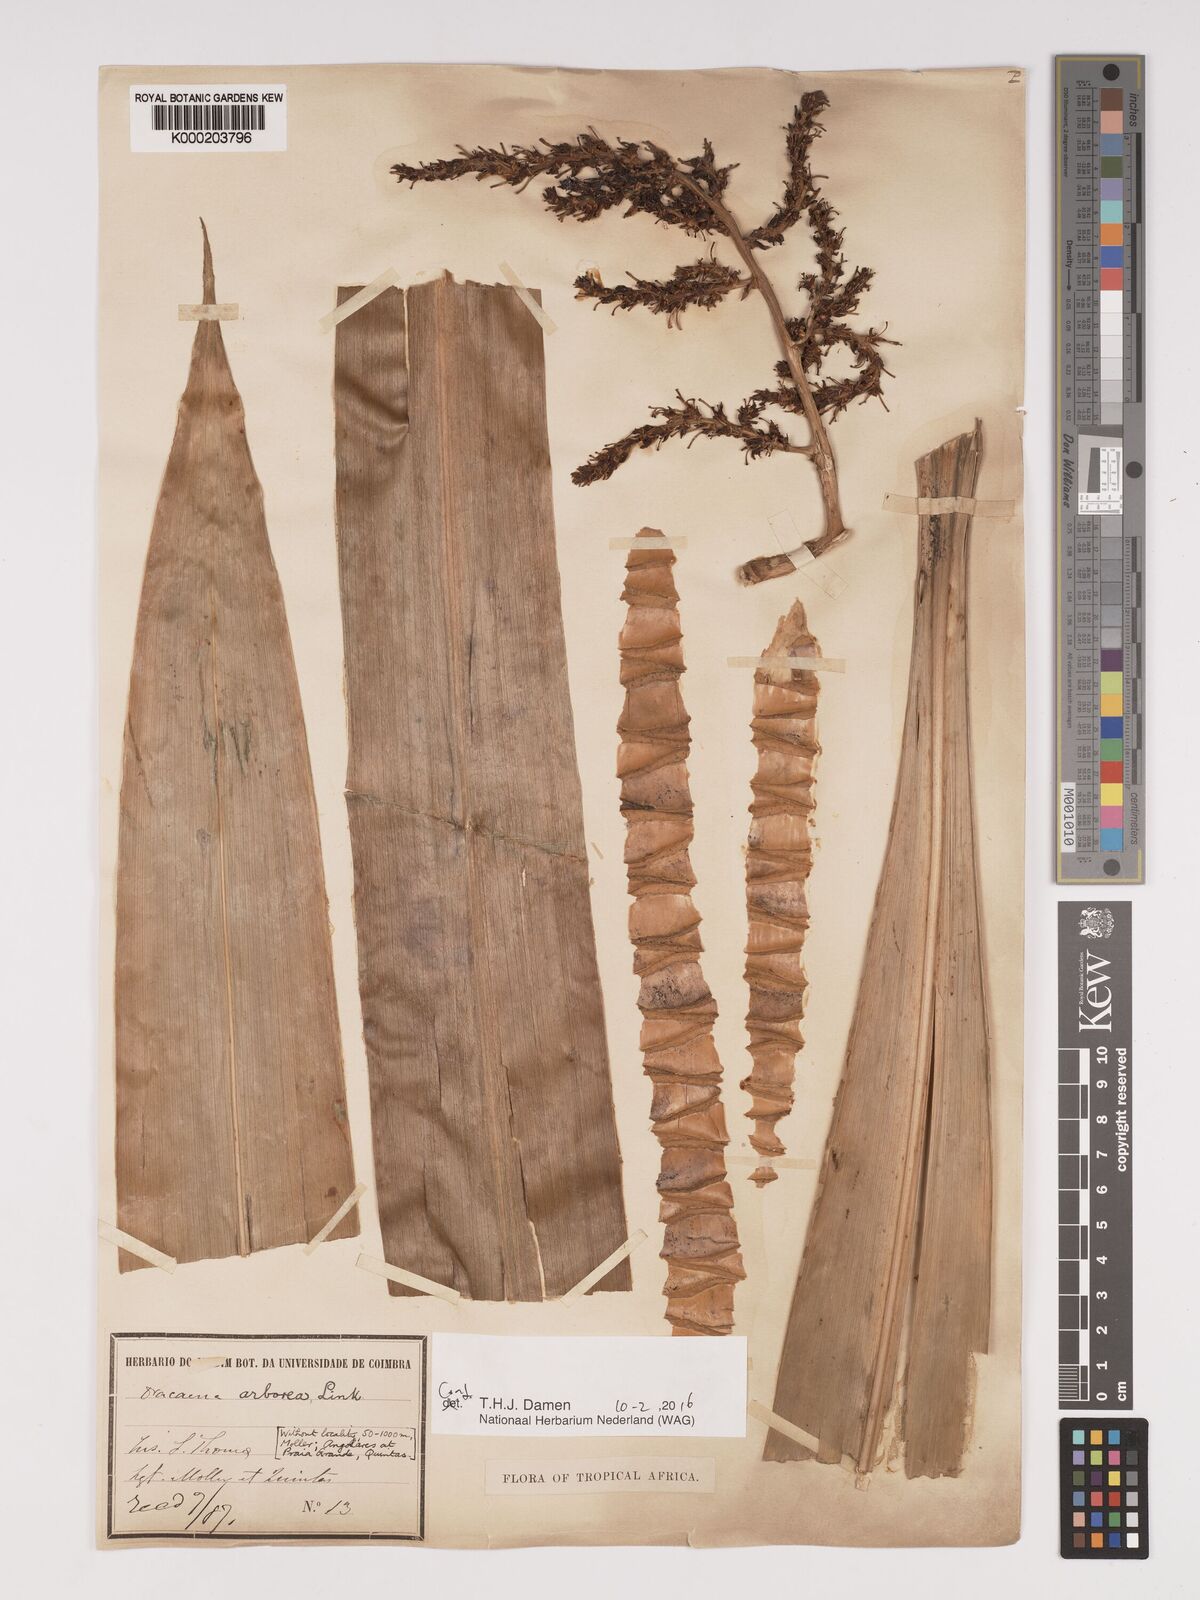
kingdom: Plantae
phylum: Tracheophyta
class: Liliopsida
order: Asparagales
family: Asparagaceae
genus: Dracaena
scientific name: Dracaena arborea
